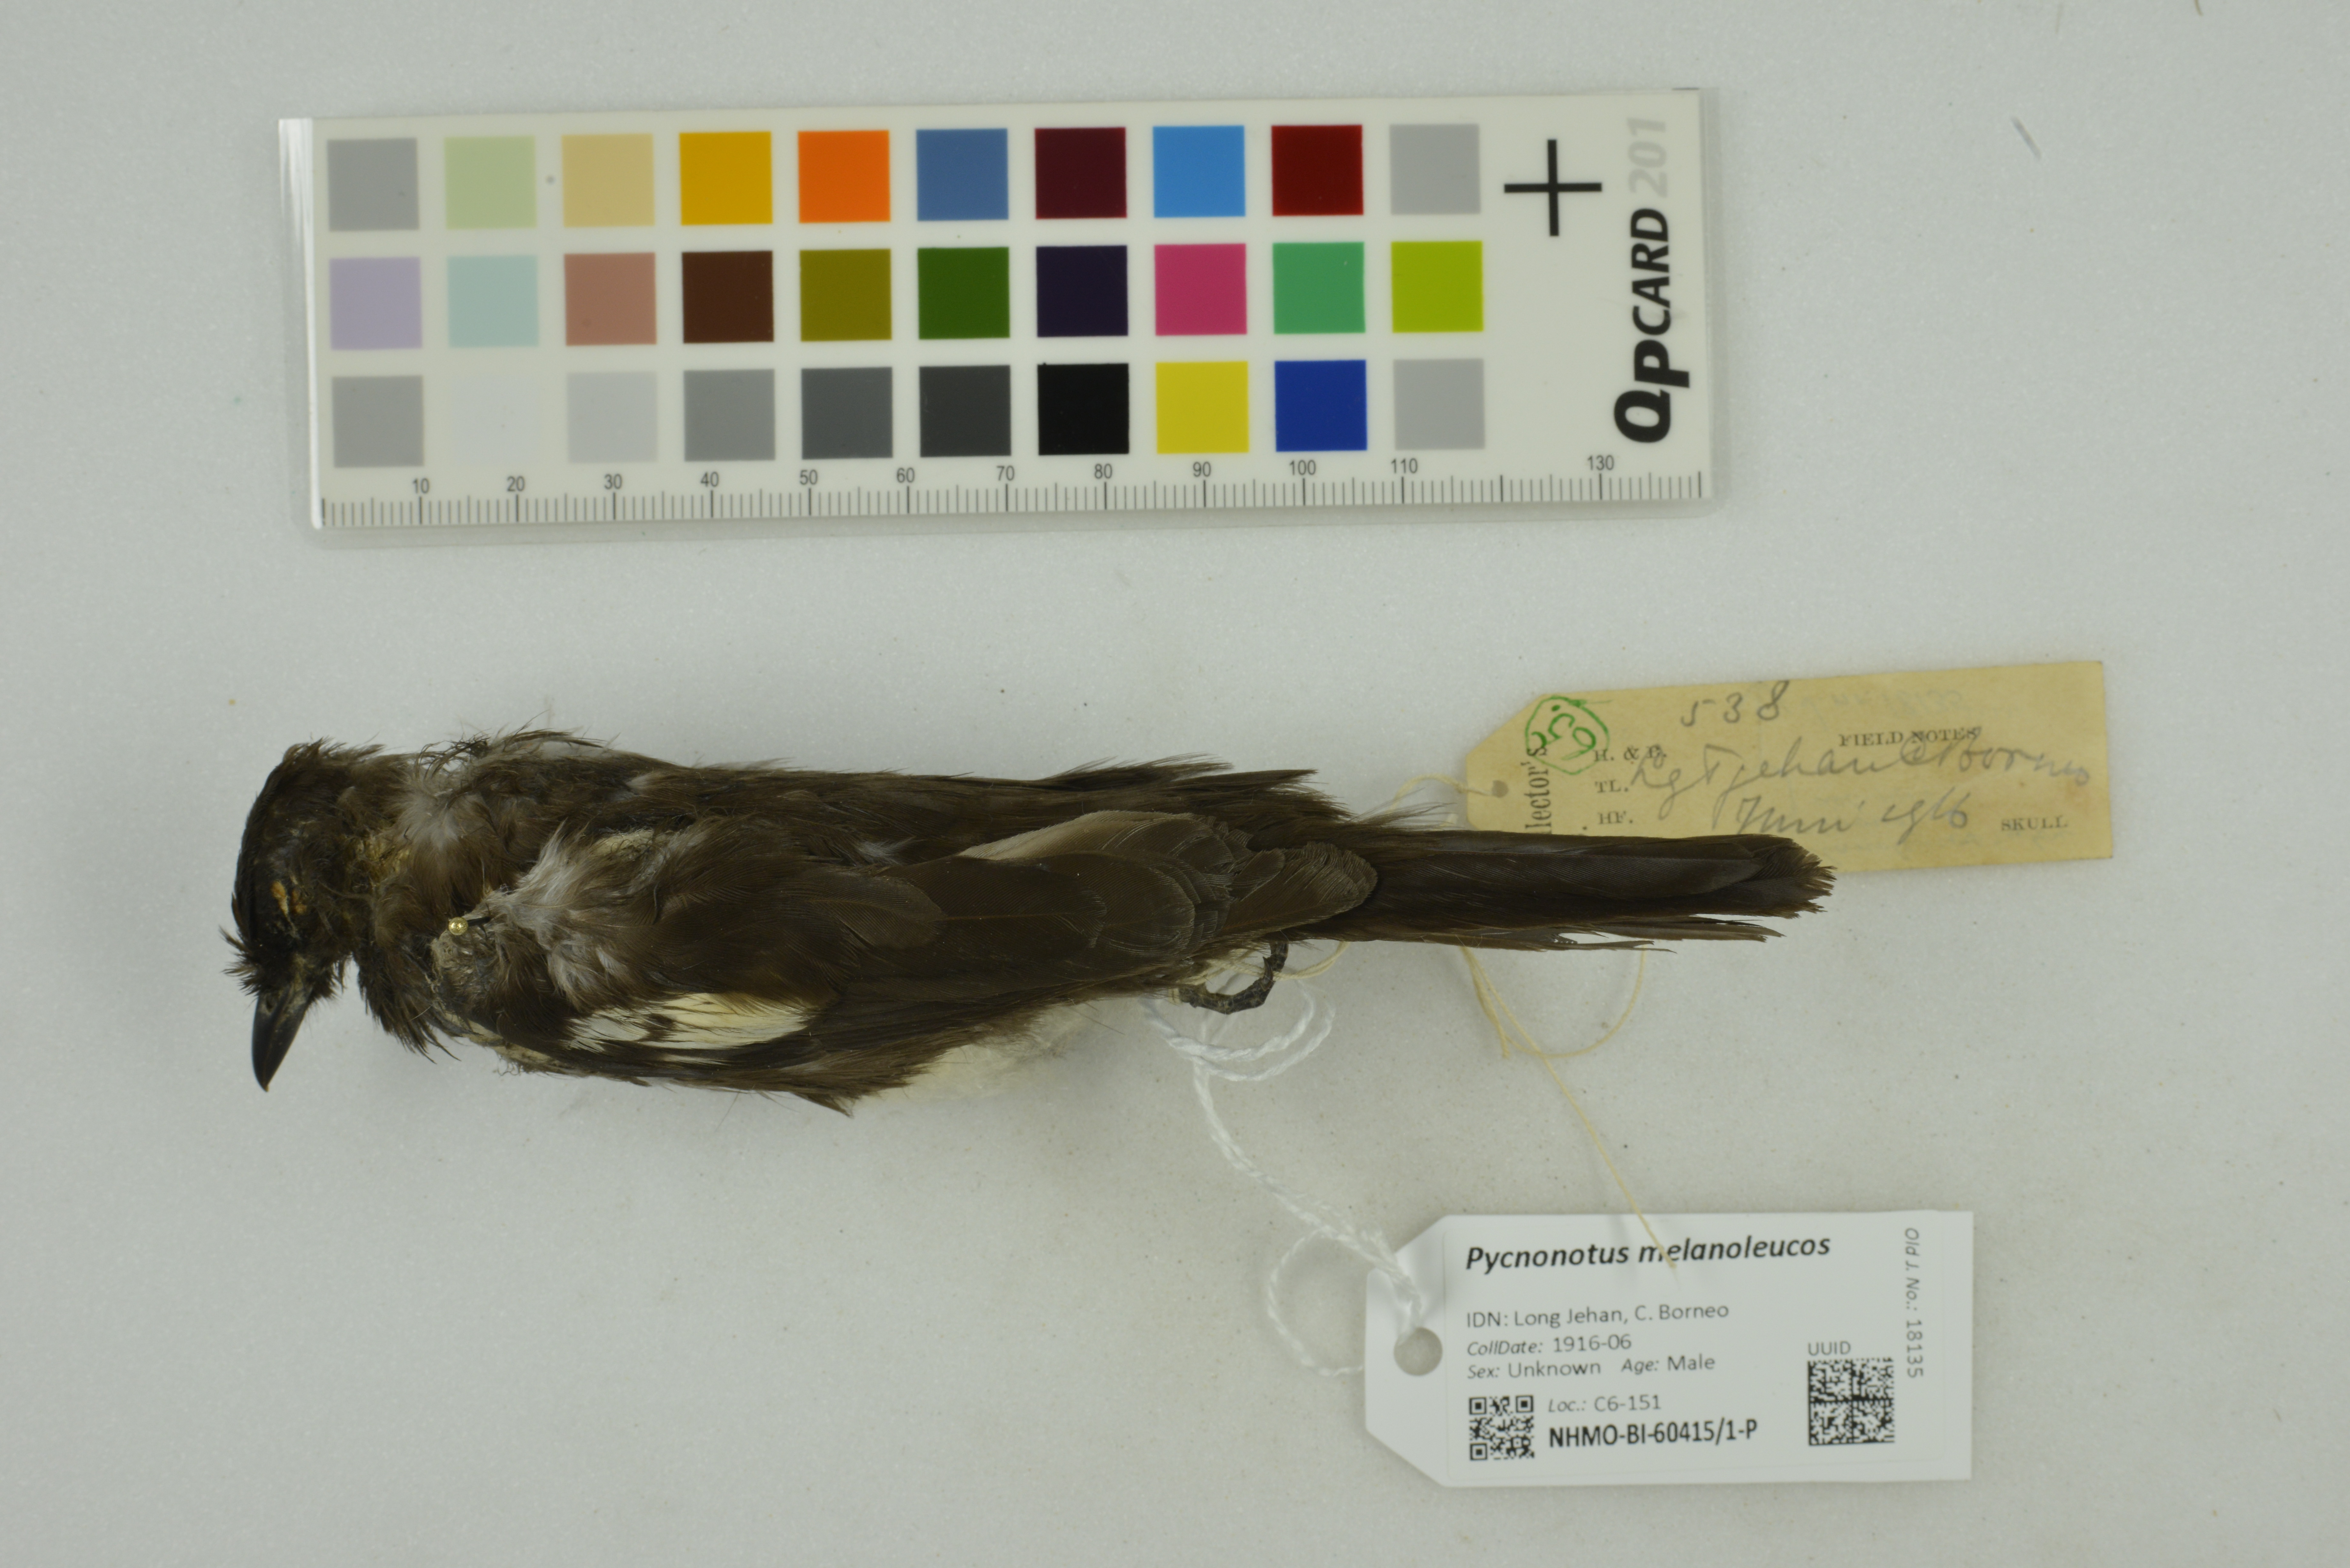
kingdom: Animalia
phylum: Chordata
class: Aves
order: Passeriformes
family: Pycnonotidae
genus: Pycnonotus
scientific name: Pycnonotus melanoleucos
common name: Black-and-white bulbul
